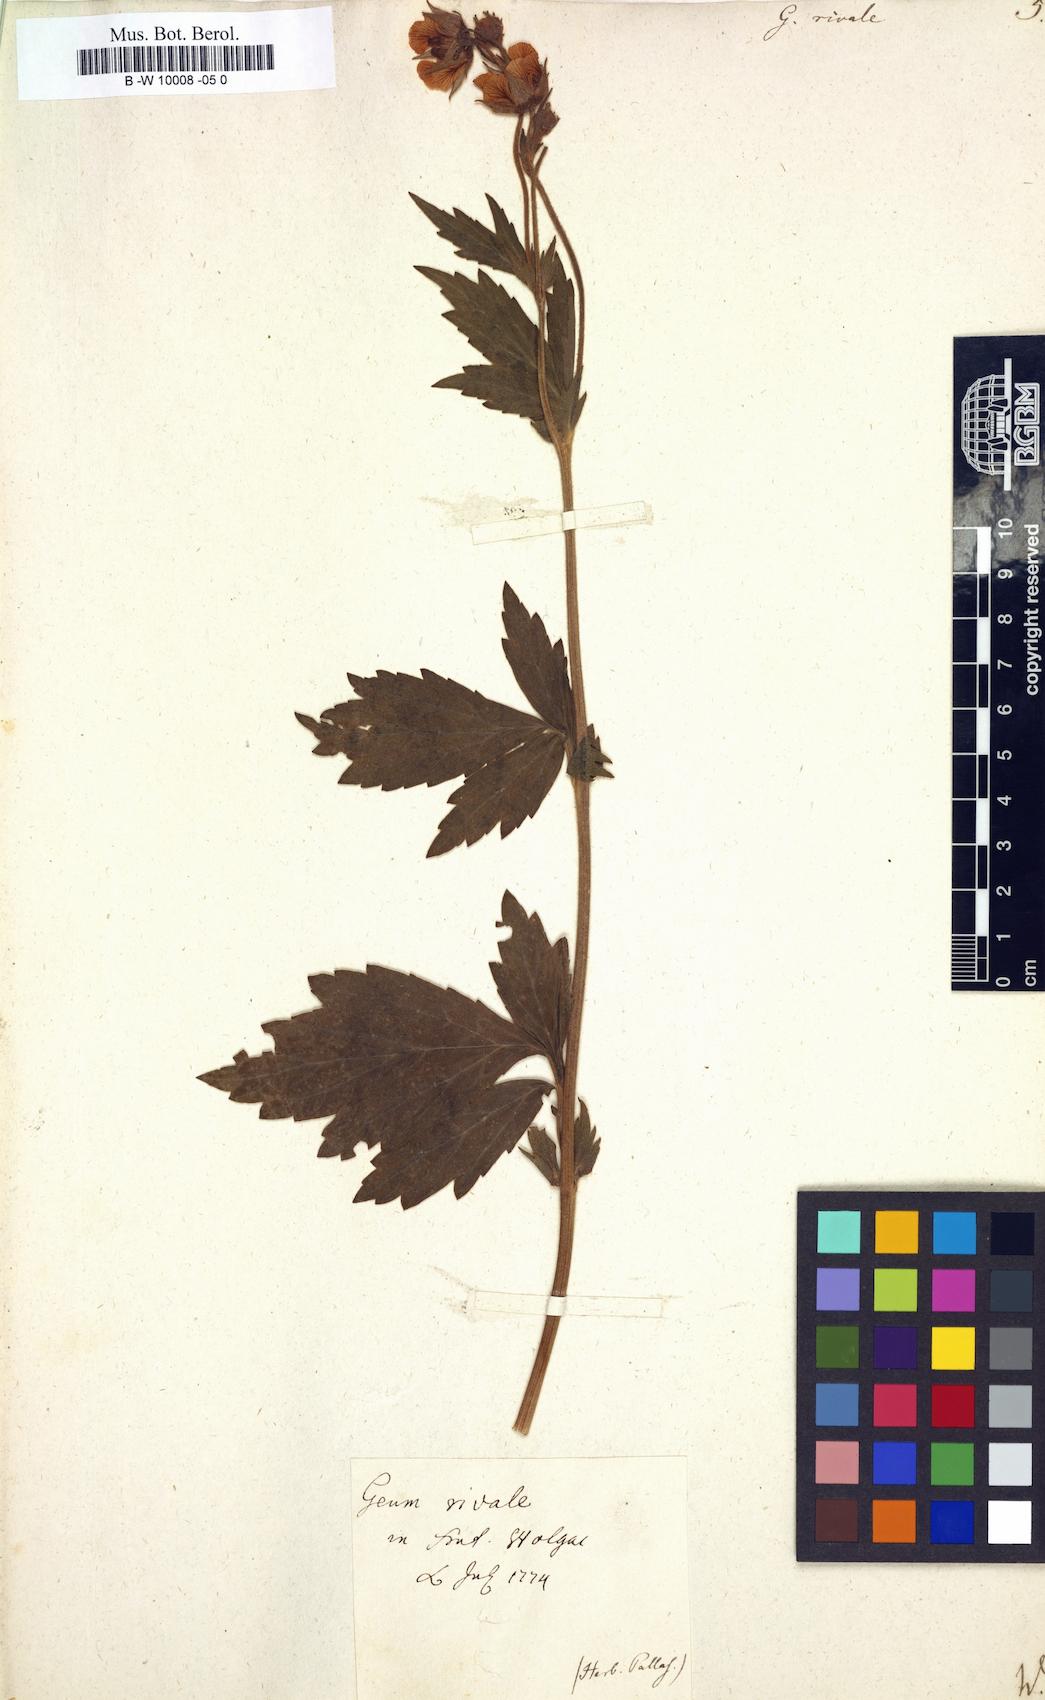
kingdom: Plantae
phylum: Tracheophyta
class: Magnoliopsida
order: Rosales
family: Rosaceae
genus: Geum
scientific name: Geum rivale
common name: Water avens
